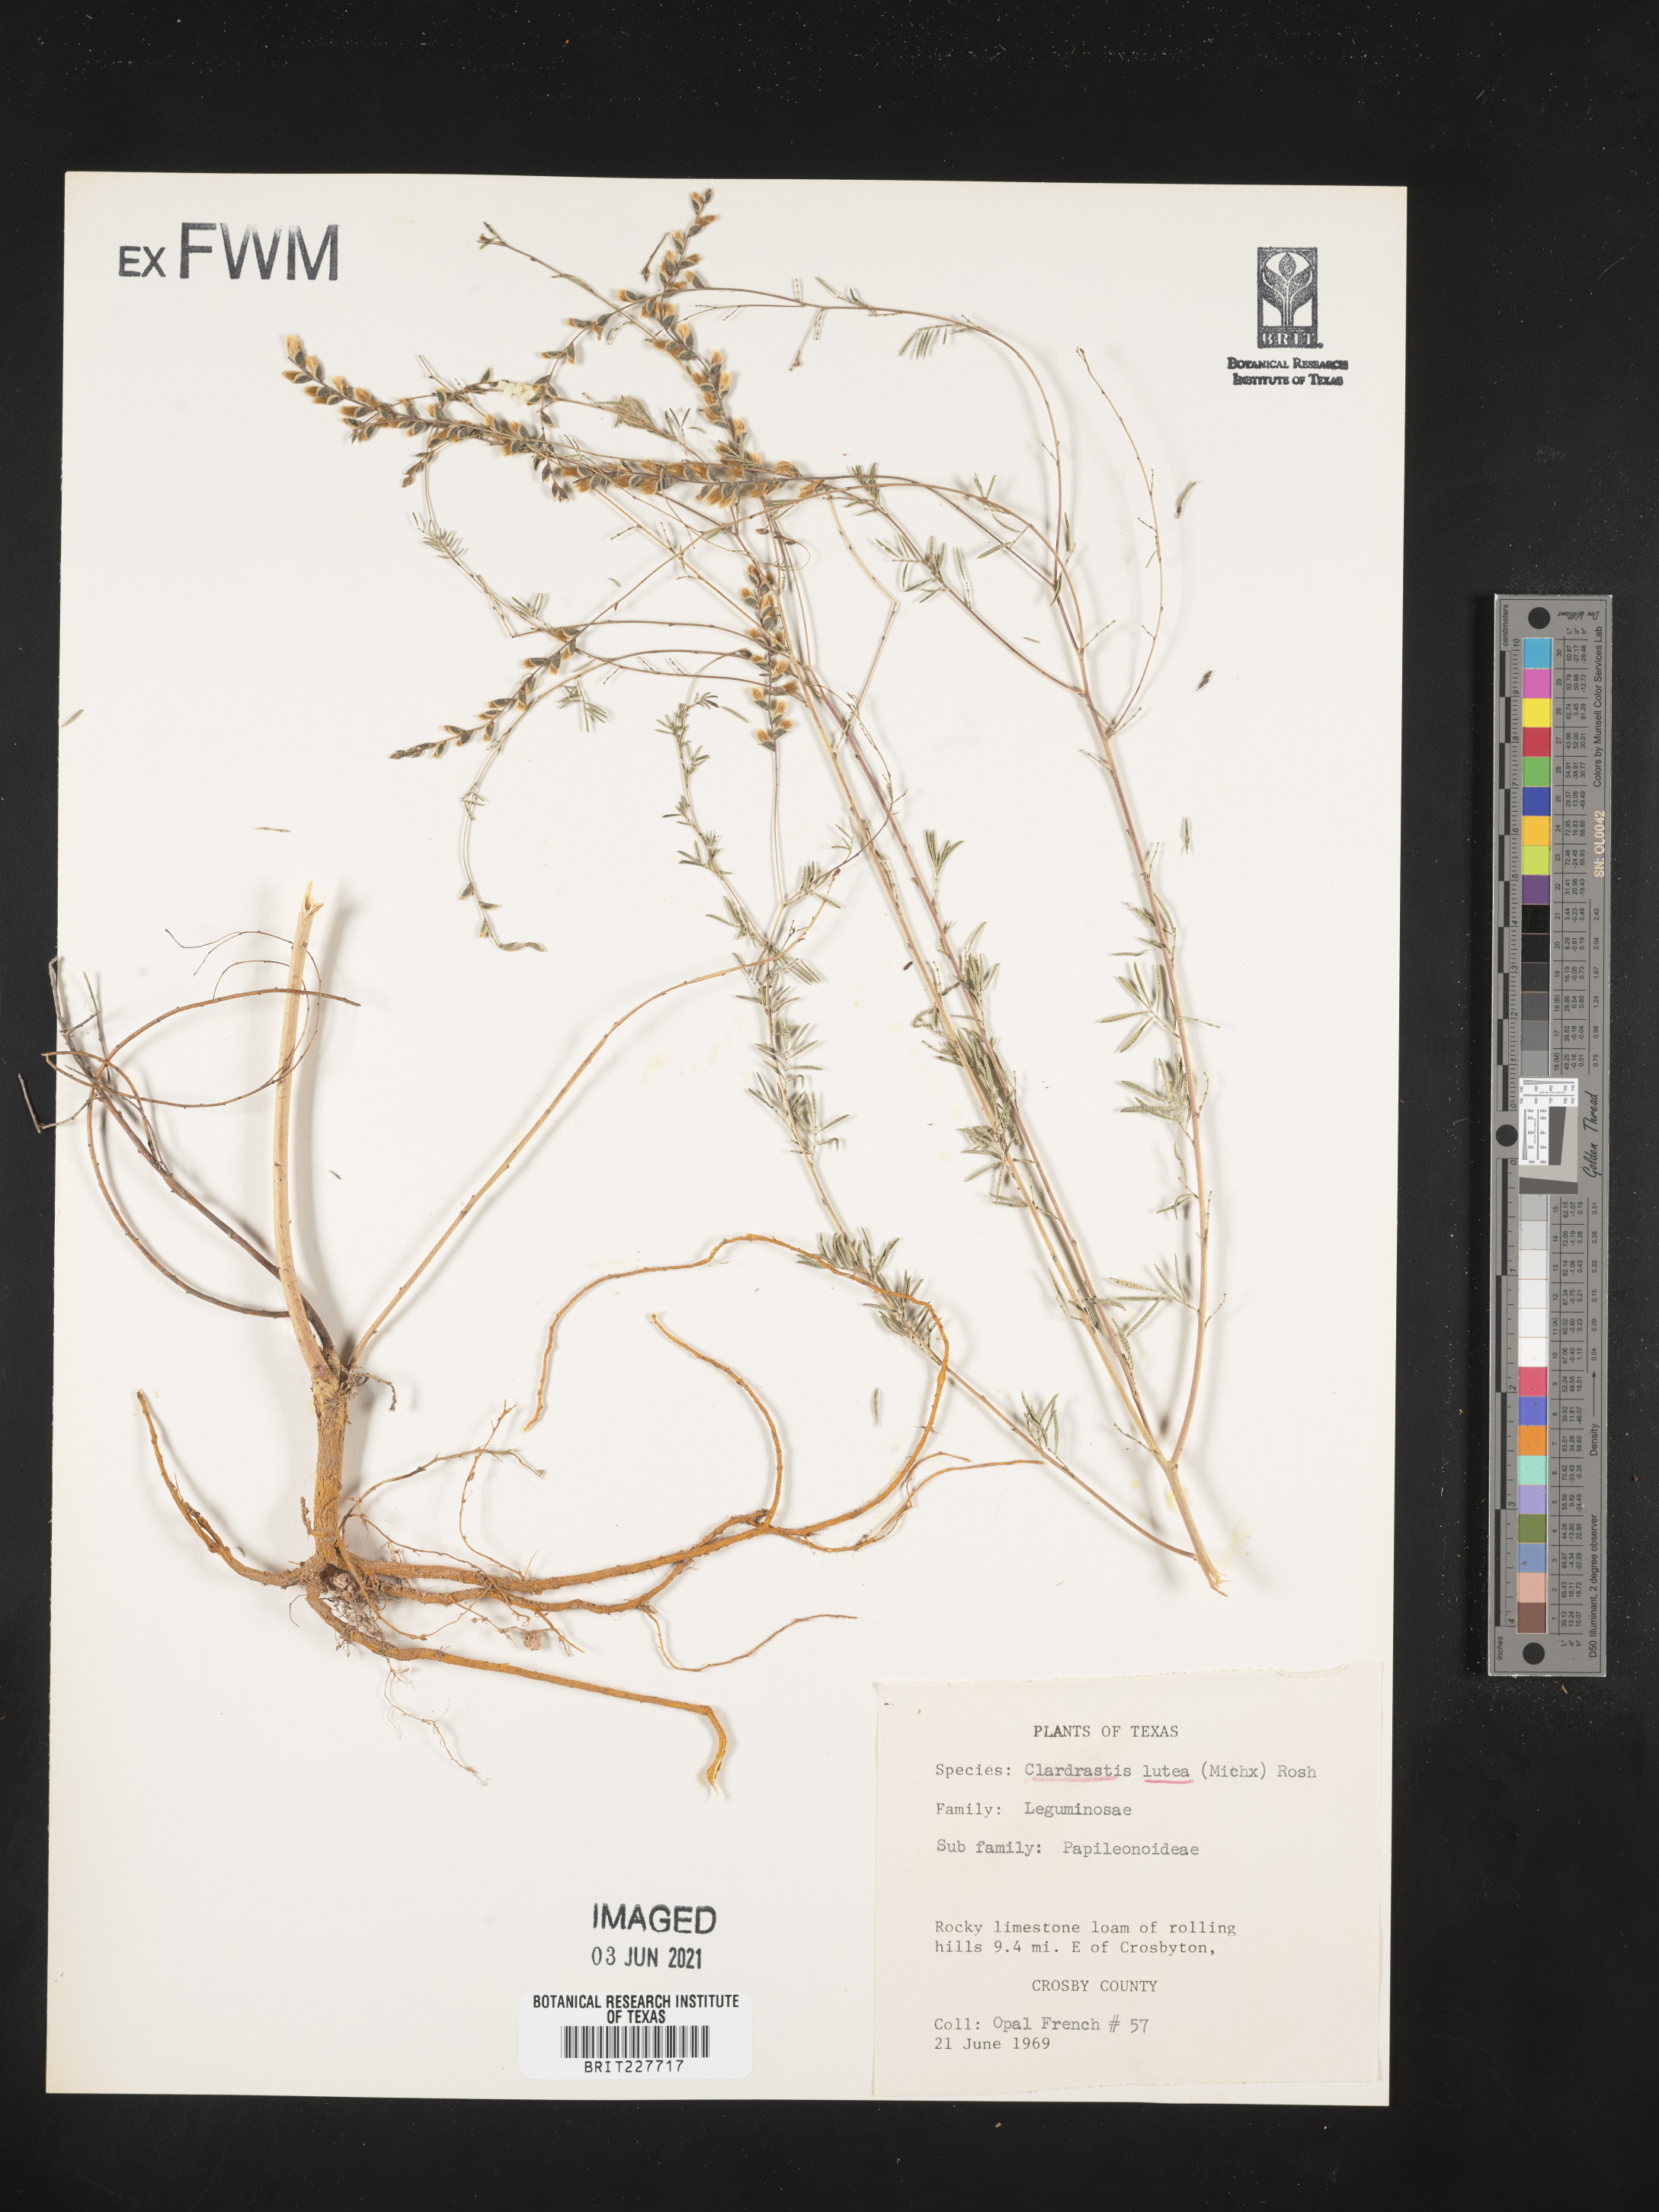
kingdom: Plantae
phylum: Tracheophyta
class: Magnoliopsida
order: Fabales
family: Fabaceae
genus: Cladrastis
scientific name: Cladrastis kentukea
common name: Kentucky yellow-wood
